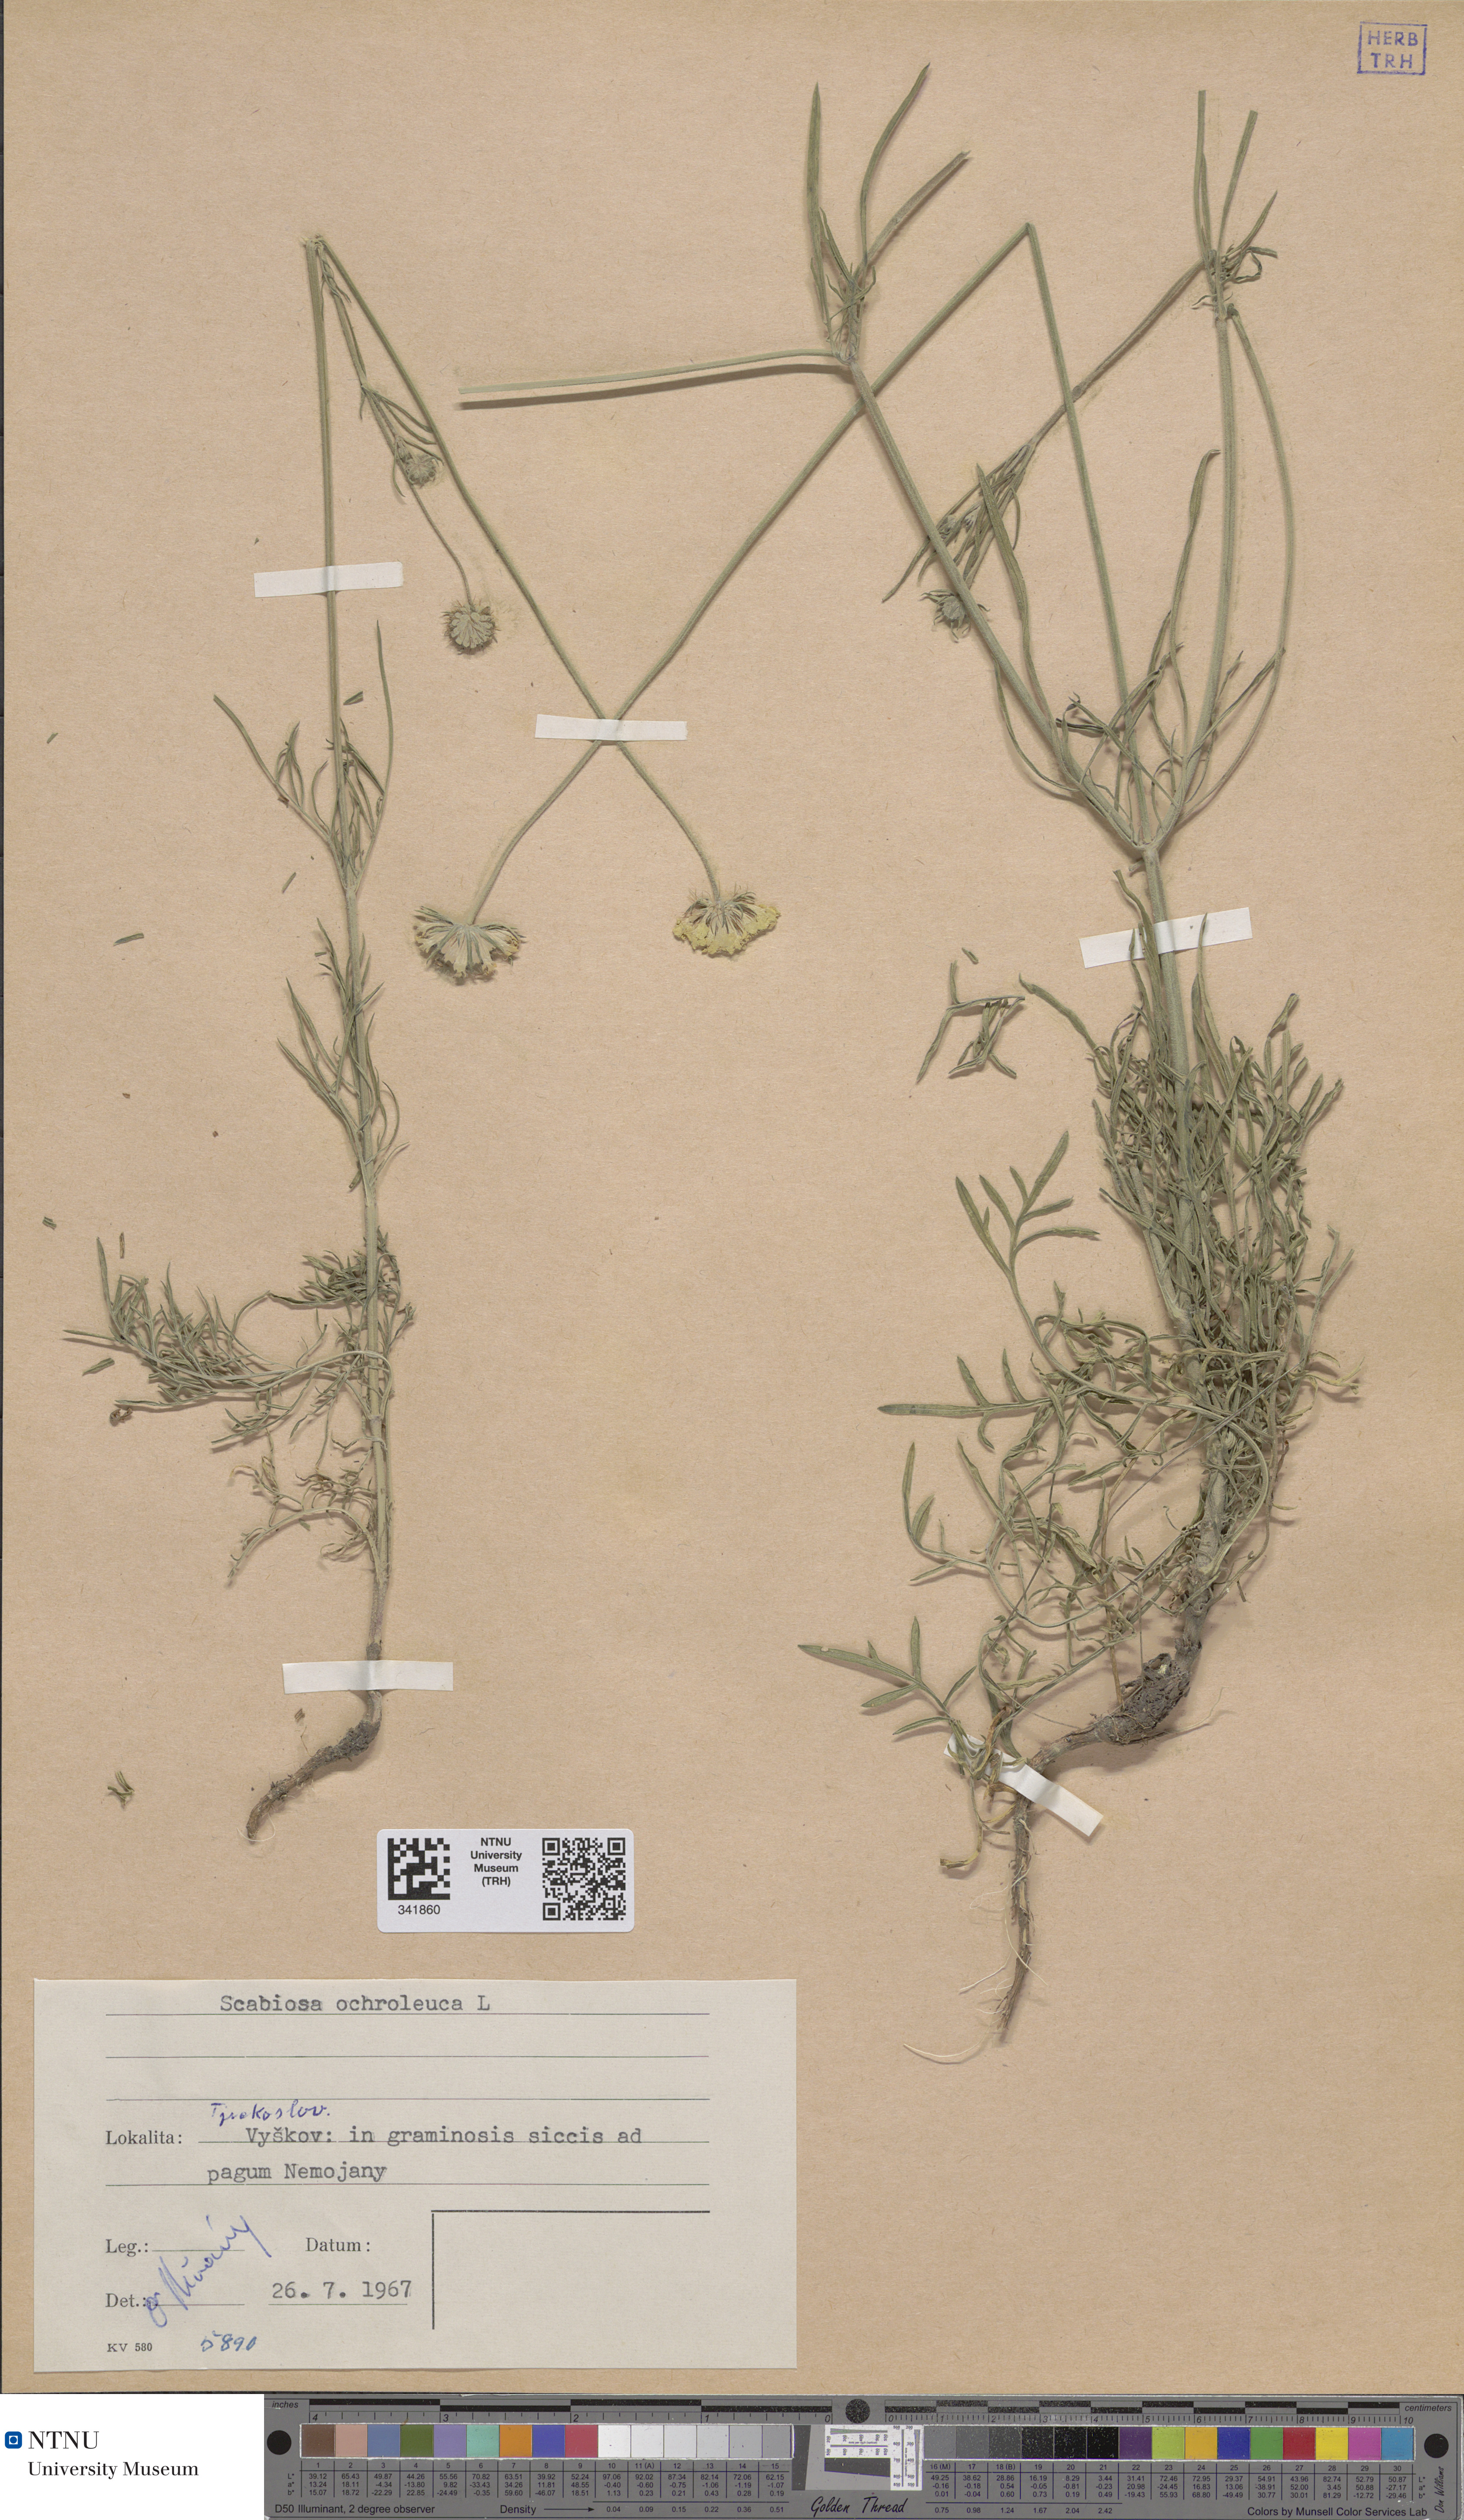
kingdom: Plantae
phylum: Tracheophyta
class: Magnoliopsida
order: Dipsacales
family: Caprifoliaceae
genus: Scabiosa
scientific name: Scabiosa ochroleuca
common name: Cream pincushions
